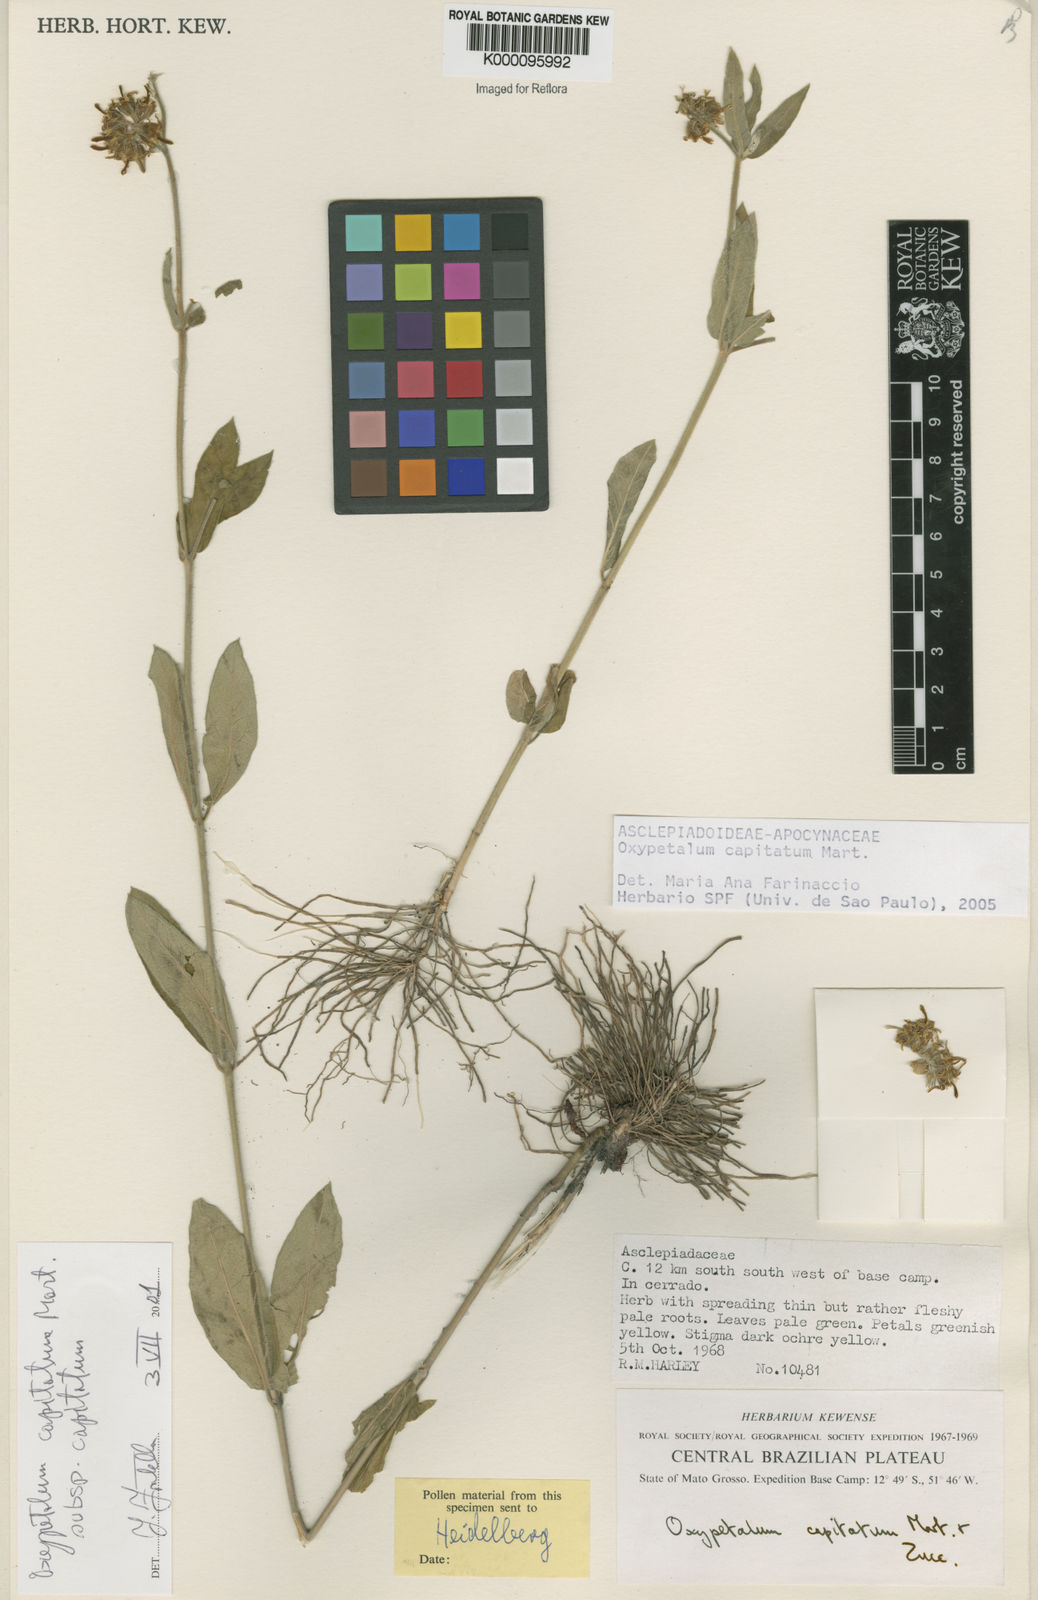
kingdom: Plantae
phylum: Tracheophyta
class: Magnoliopsida
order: Gentianales
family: Apocynaceae
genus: Oxypetalum
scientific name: Oxypetalum capitatum
